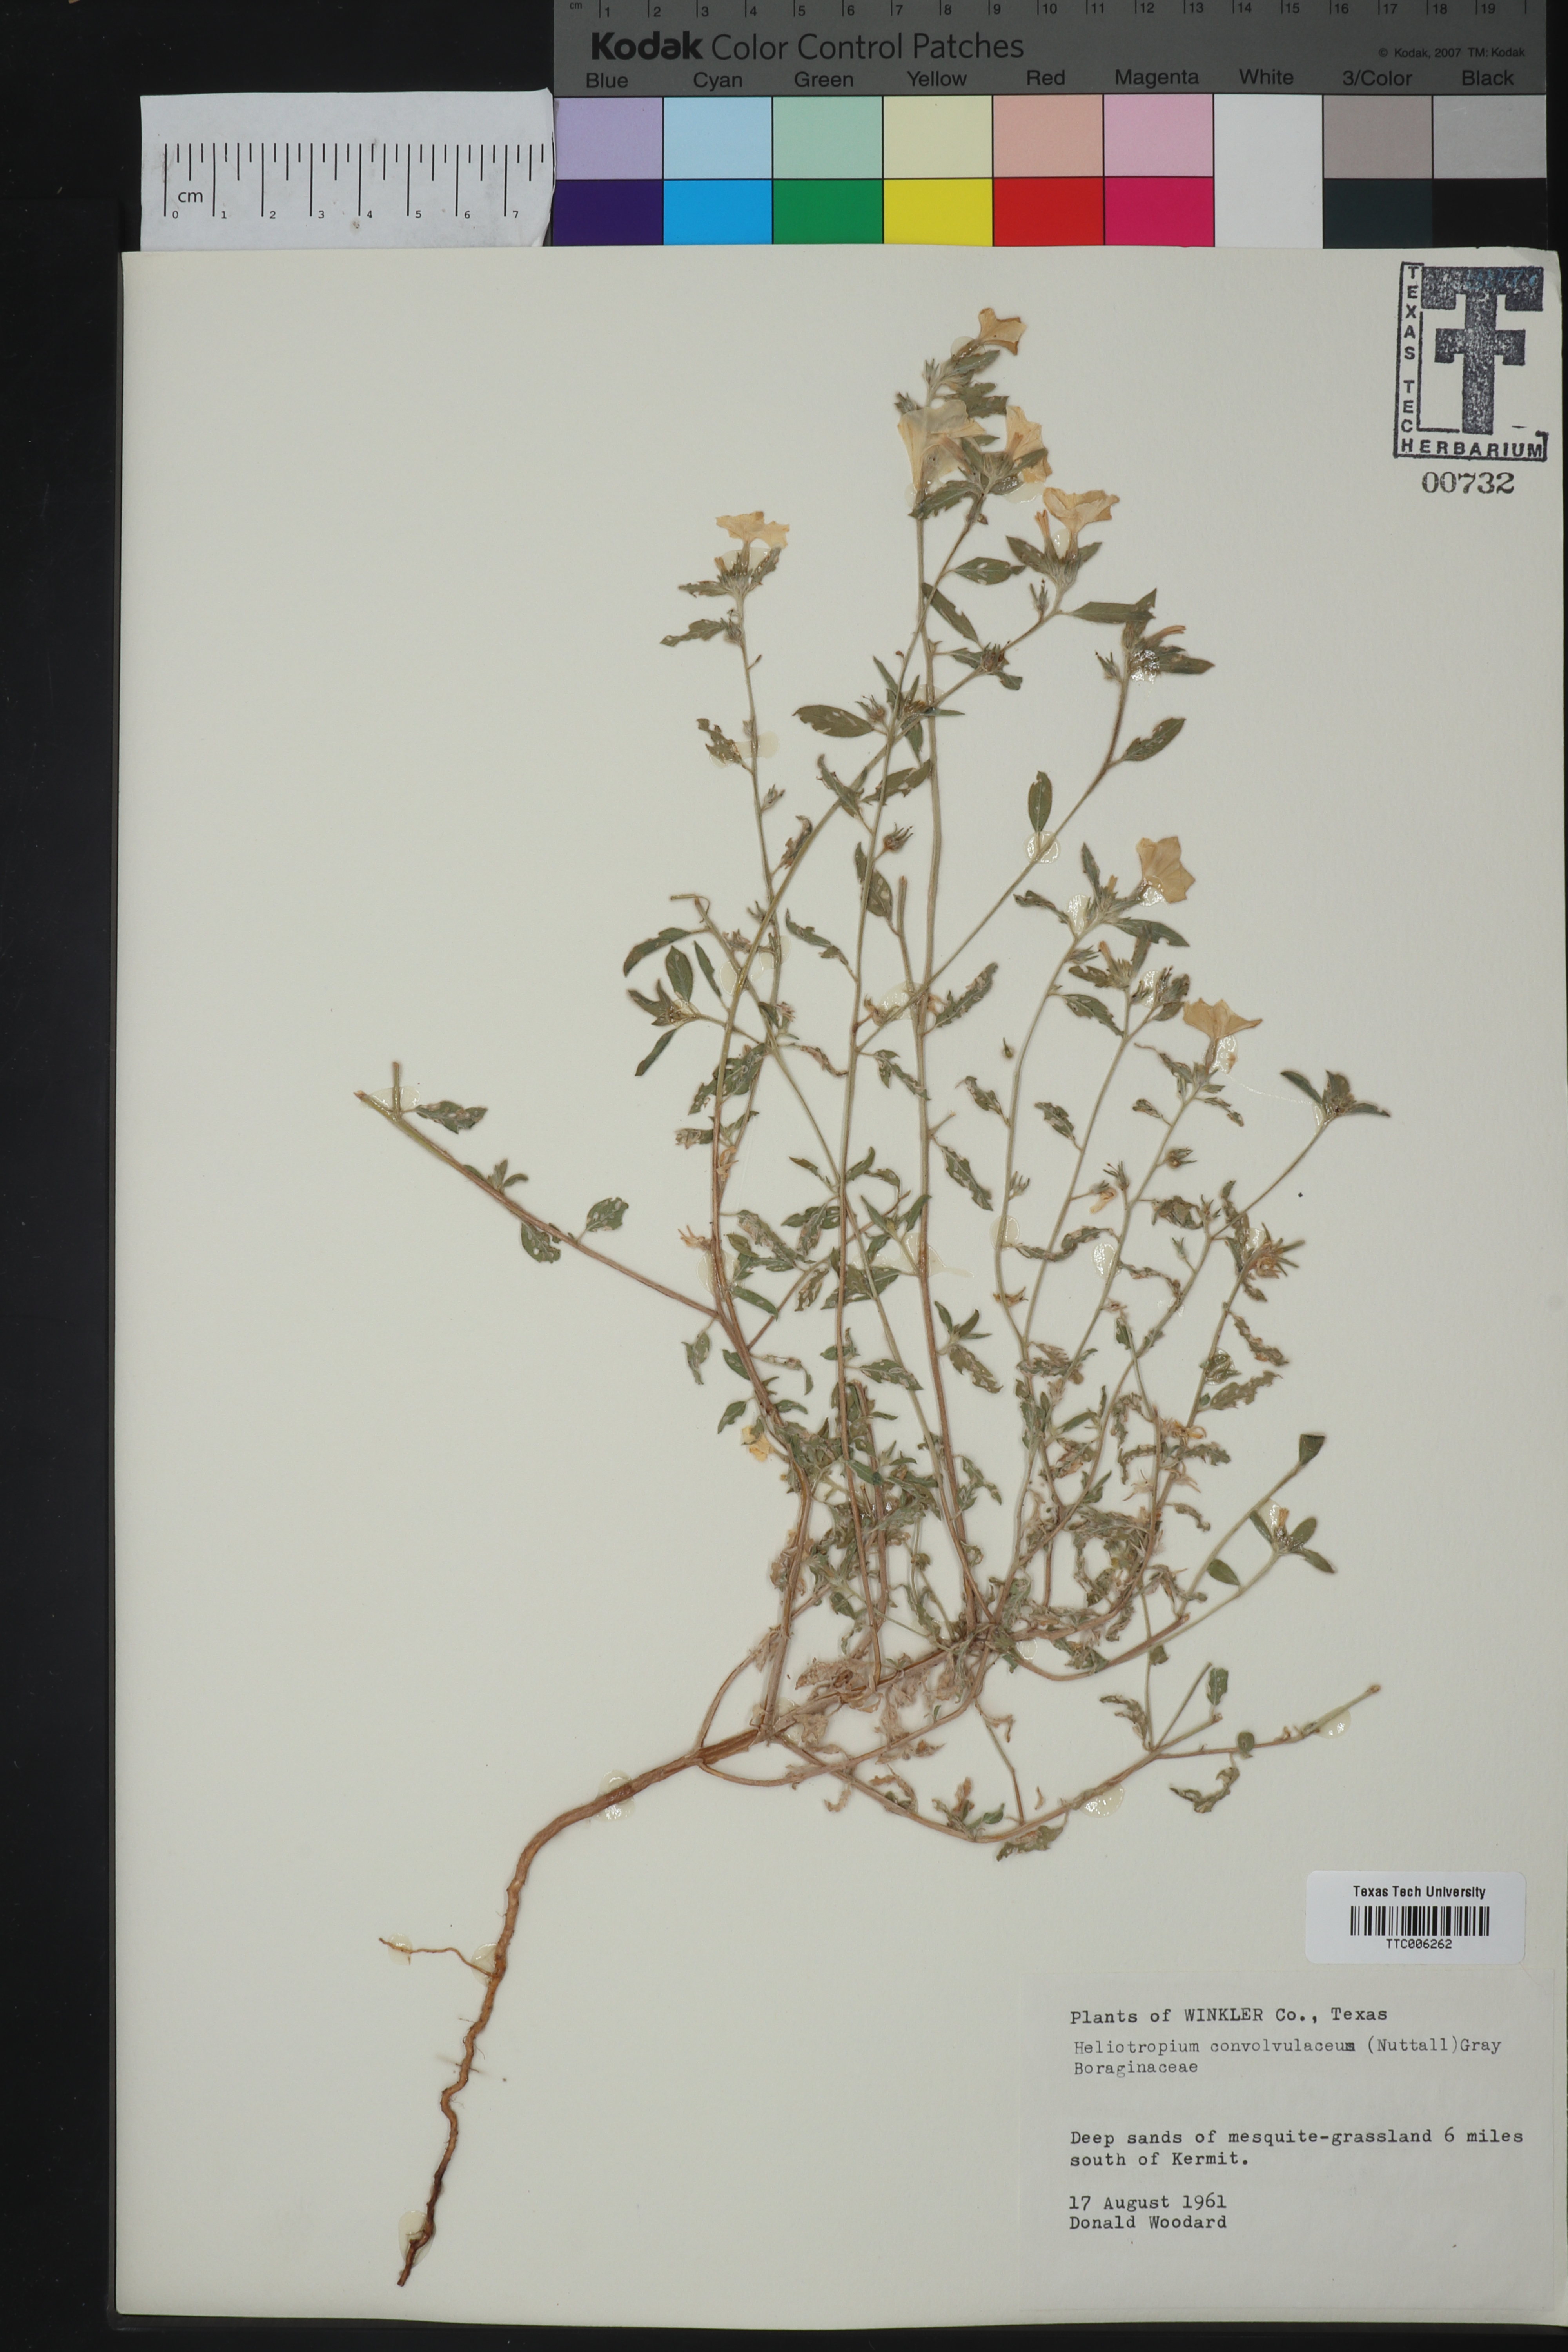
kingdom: Plantae
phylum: Tracheophyta
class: Magnoliopsida
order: Boraginales
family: Heliotropiaceae
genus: Euploca
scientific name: Euploca convolvulacea
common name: Bindweed heliotrope
